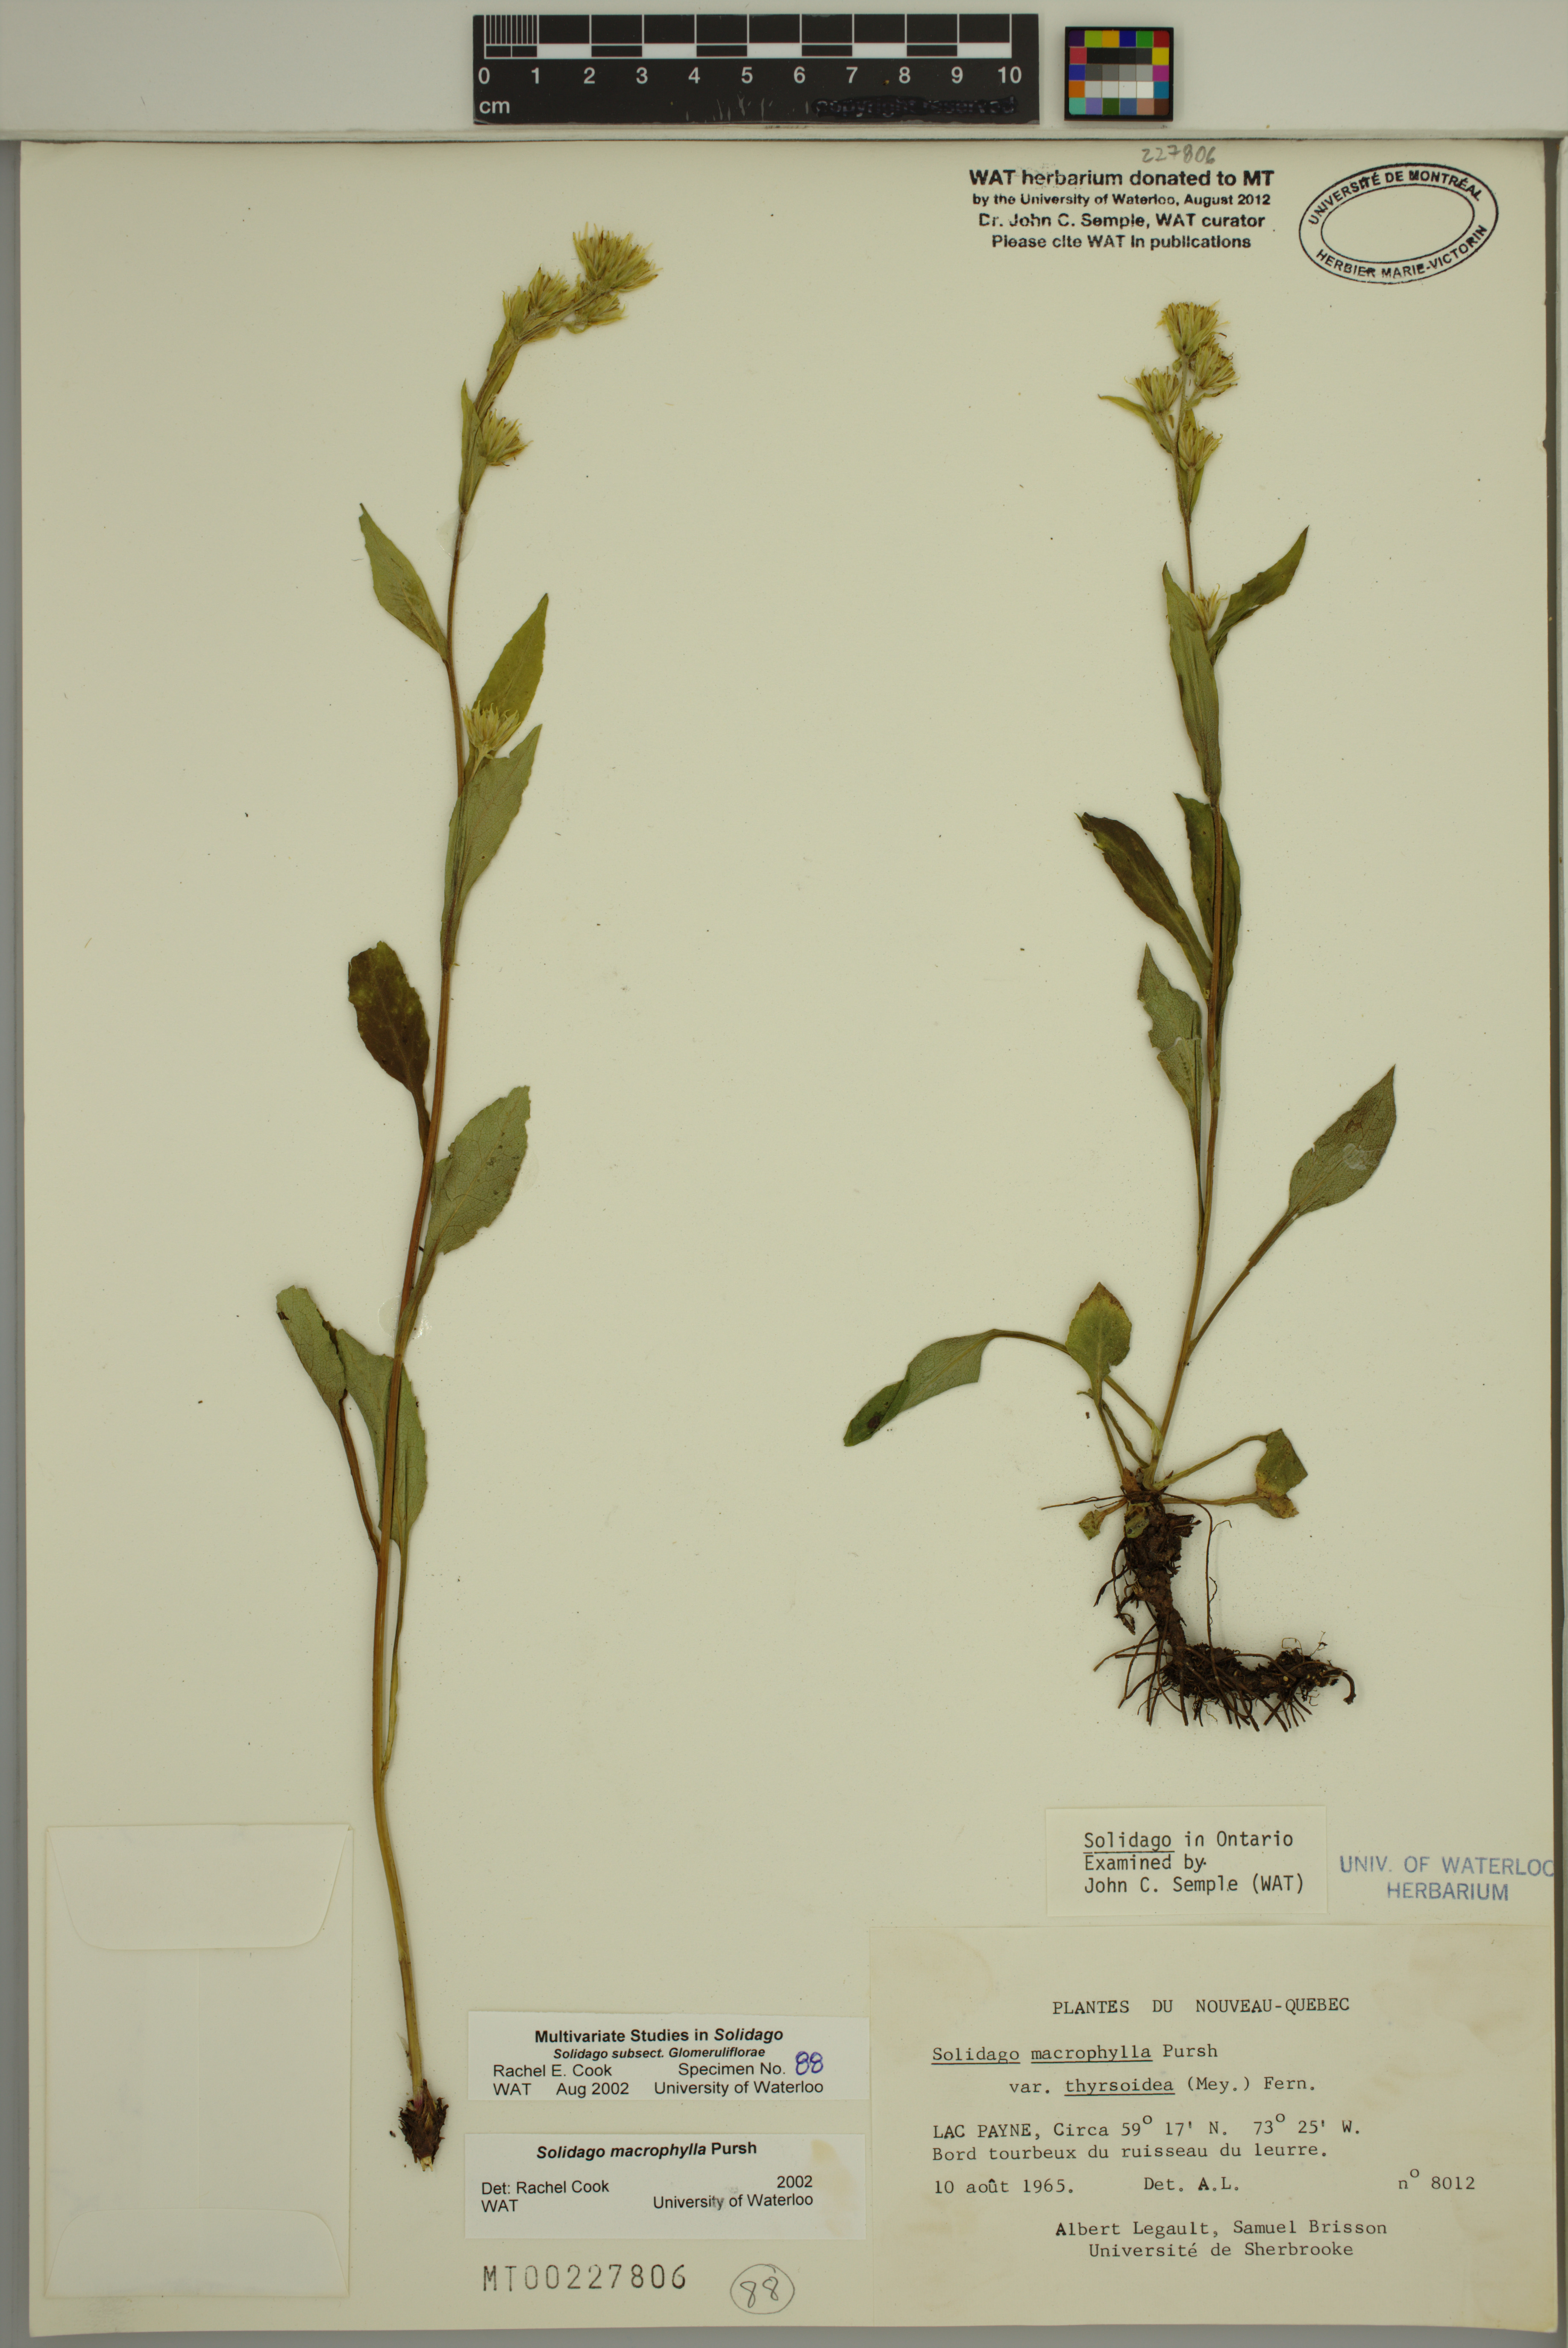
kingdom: Plantae
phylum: Tracheophyta
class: Magnoliopsida
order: Asterales
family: Asteraceae
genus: Solidago
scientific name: Solidago macrophylla
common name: Large-leaved goldenrod
